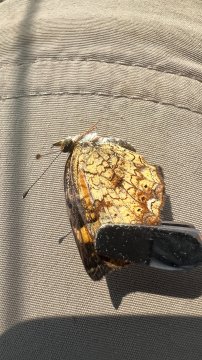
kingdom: Animalia
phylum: Arthropoda
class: Insecta
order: Lepidoptera
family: Nymphalidae
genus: Phyciodes
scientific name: Phyciodes
